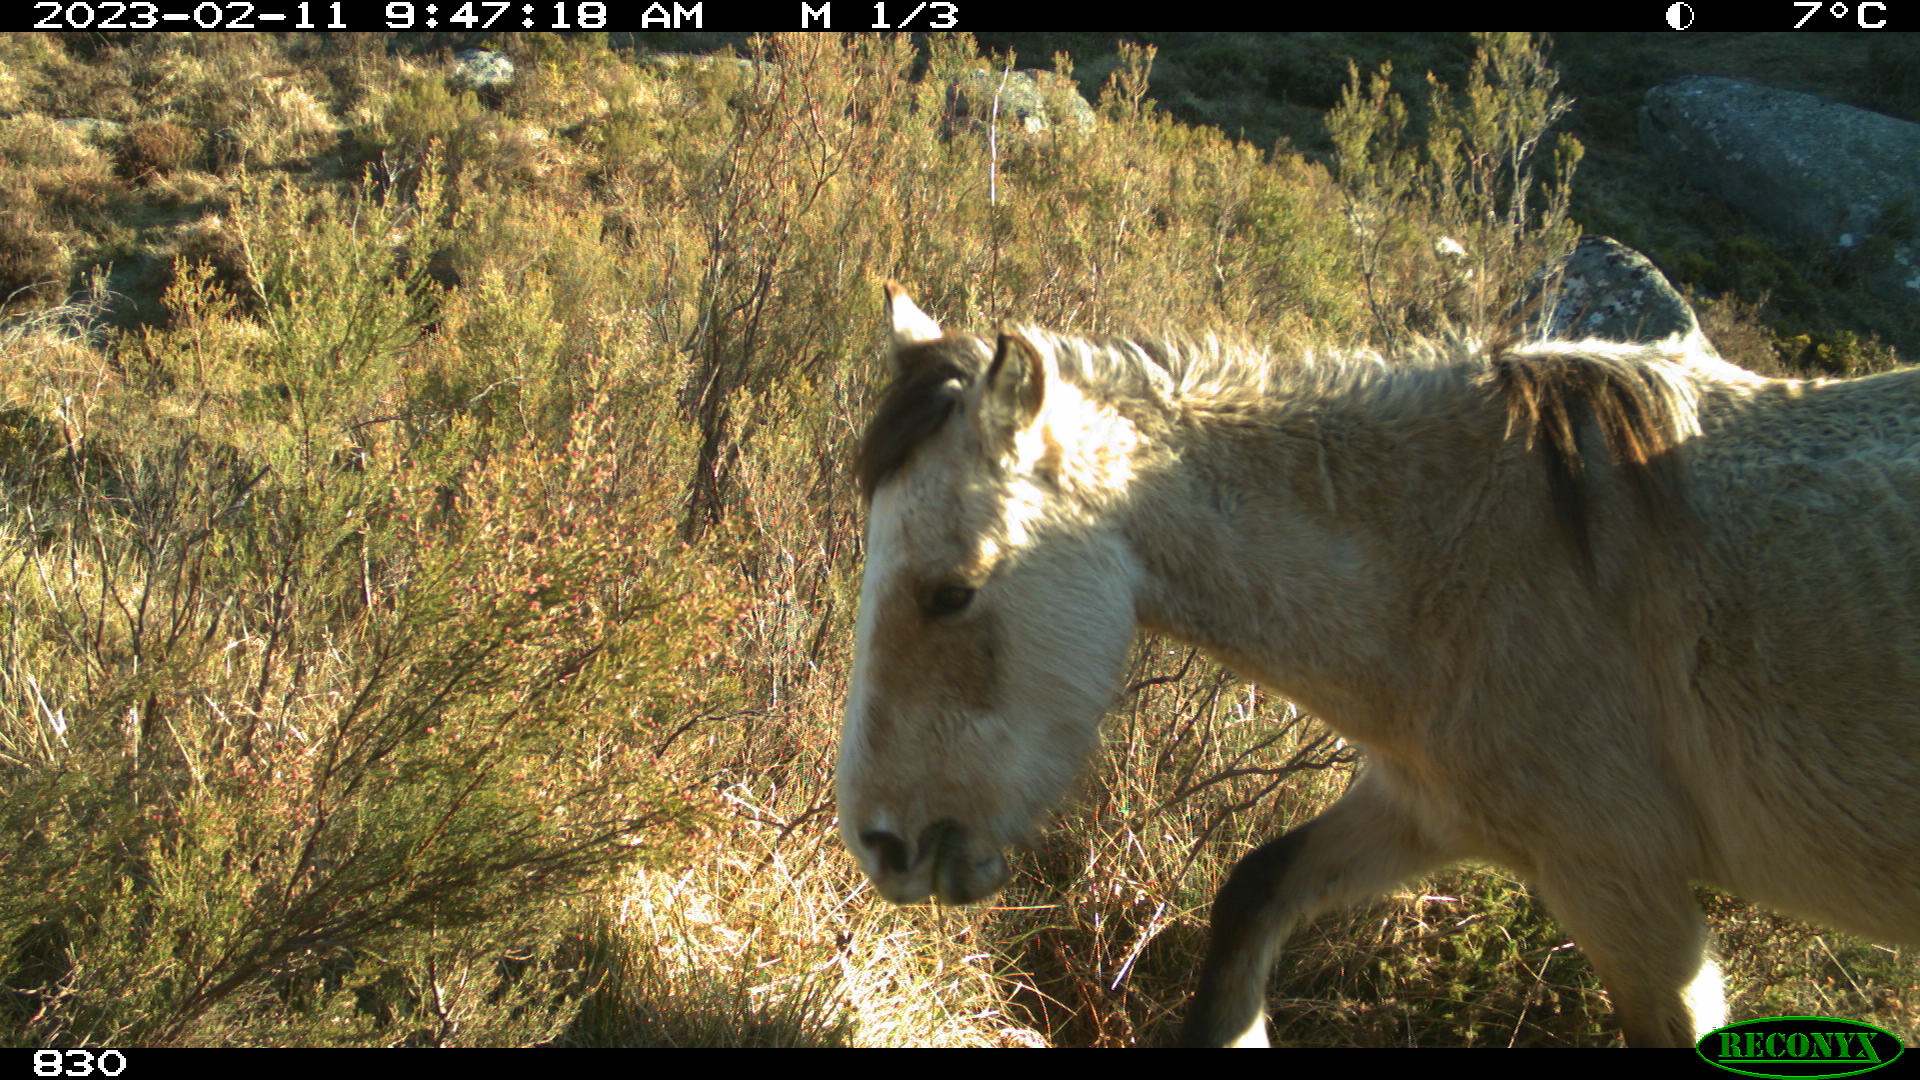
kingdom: Animalia
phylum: Chordata
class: Mammalia
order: Perissodactyla
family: Equidae
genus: Equus
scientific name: Equus caballus
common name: Horse
